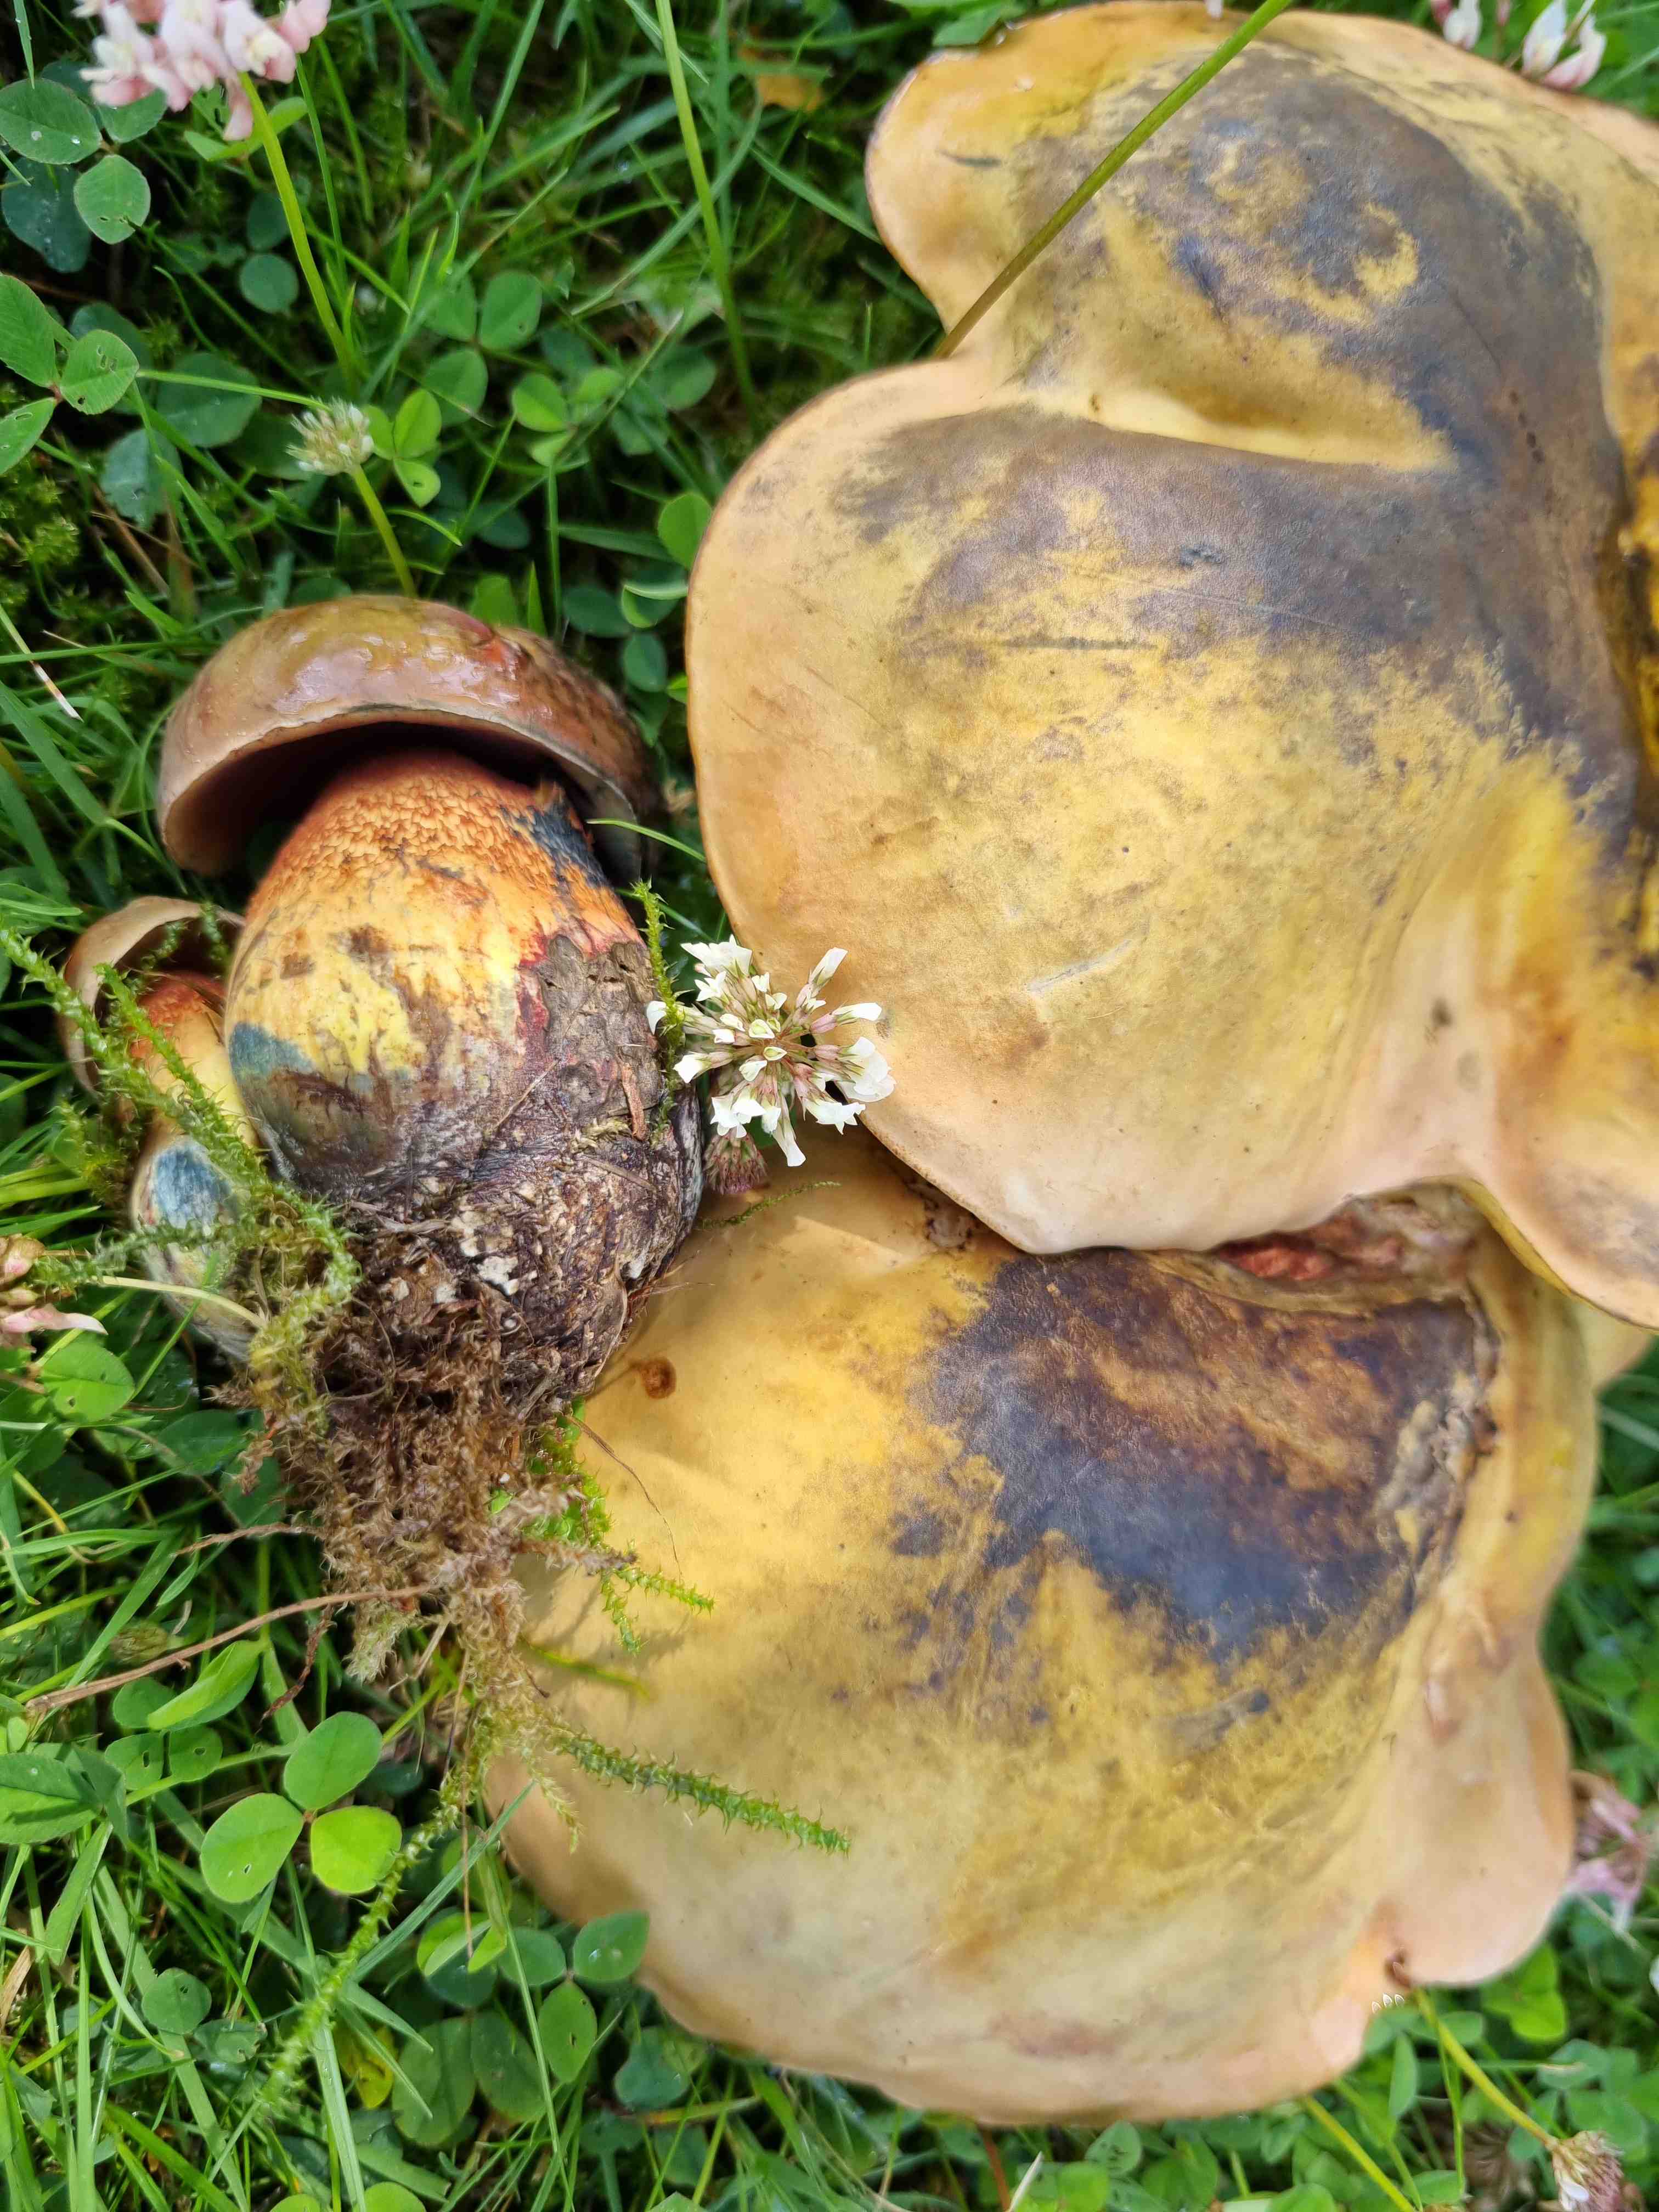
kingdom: Fungi
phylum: Basidiomycota
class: Agaricomycetes
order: Boletales
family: Boletaceae
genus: Suillellus
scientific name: Suillellus luridus
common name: netstokket indigorørhat
